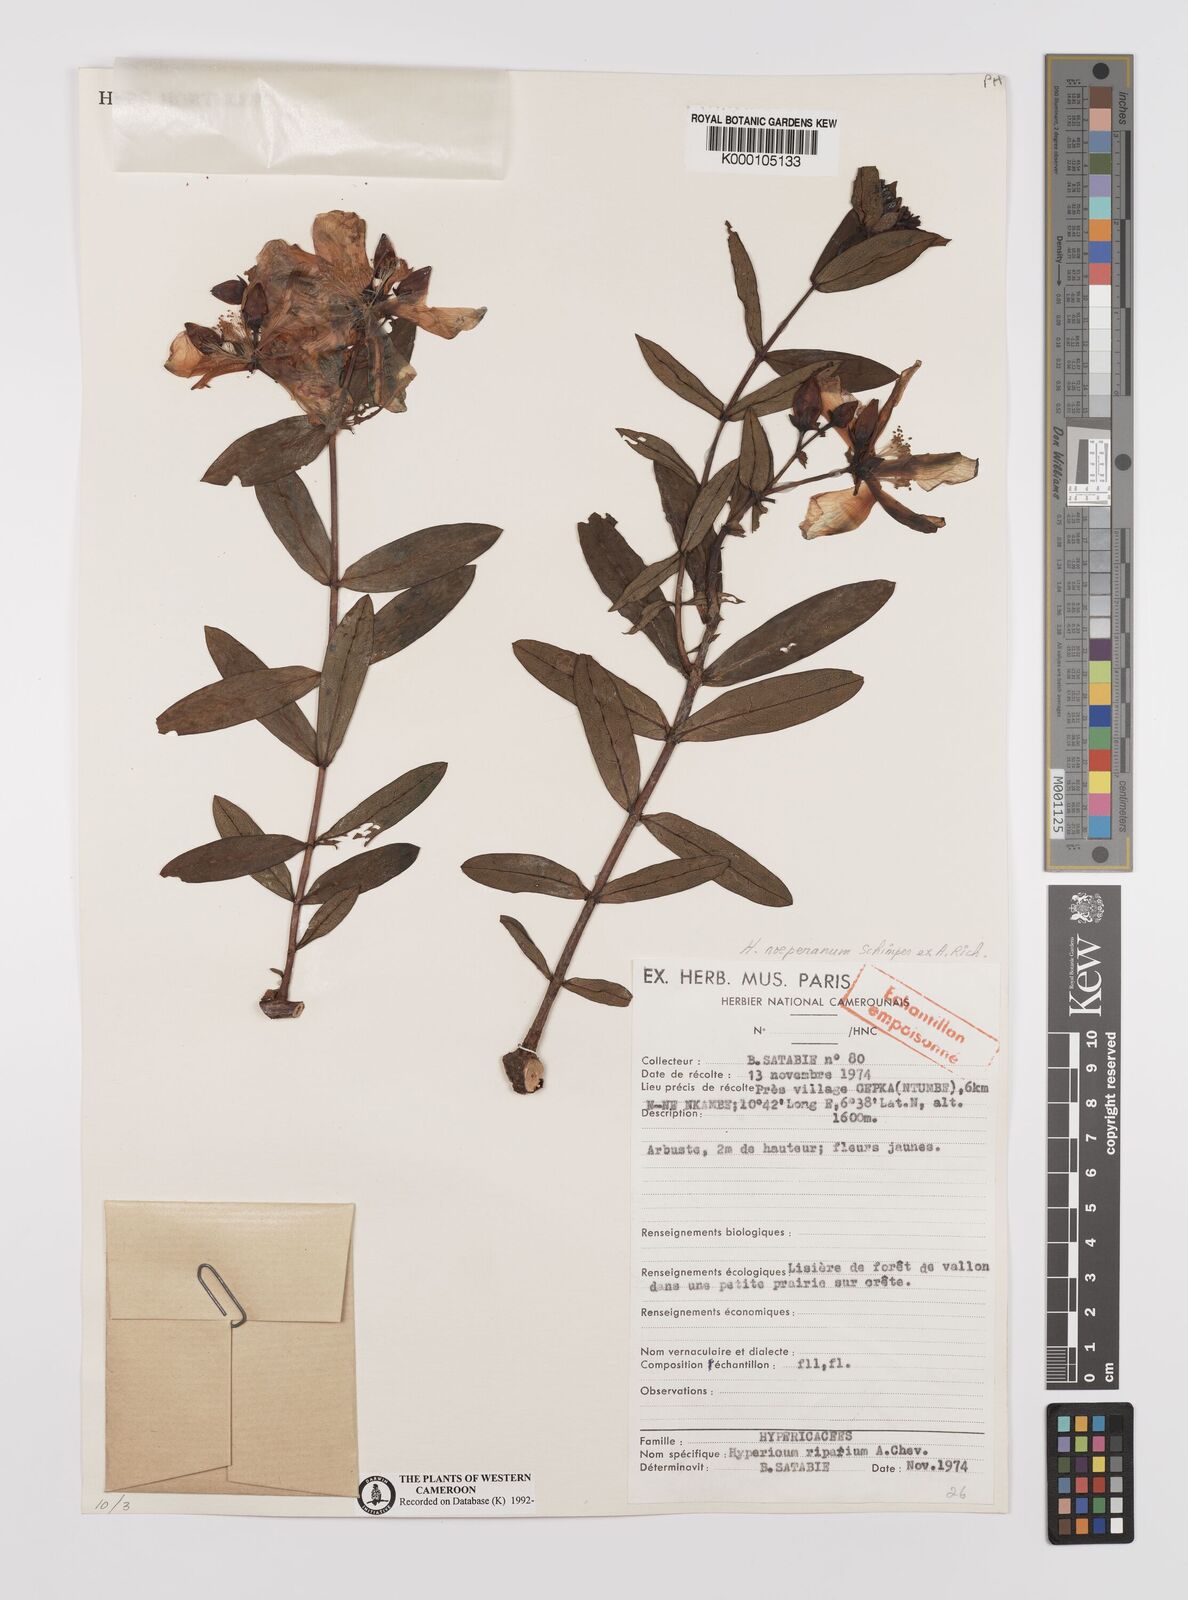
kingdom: Plantae
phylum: Tracheophyta
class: Magnoliopsida
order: Malpighiales
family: Hypericaceae
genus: Hypericum
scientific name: Hypericum
